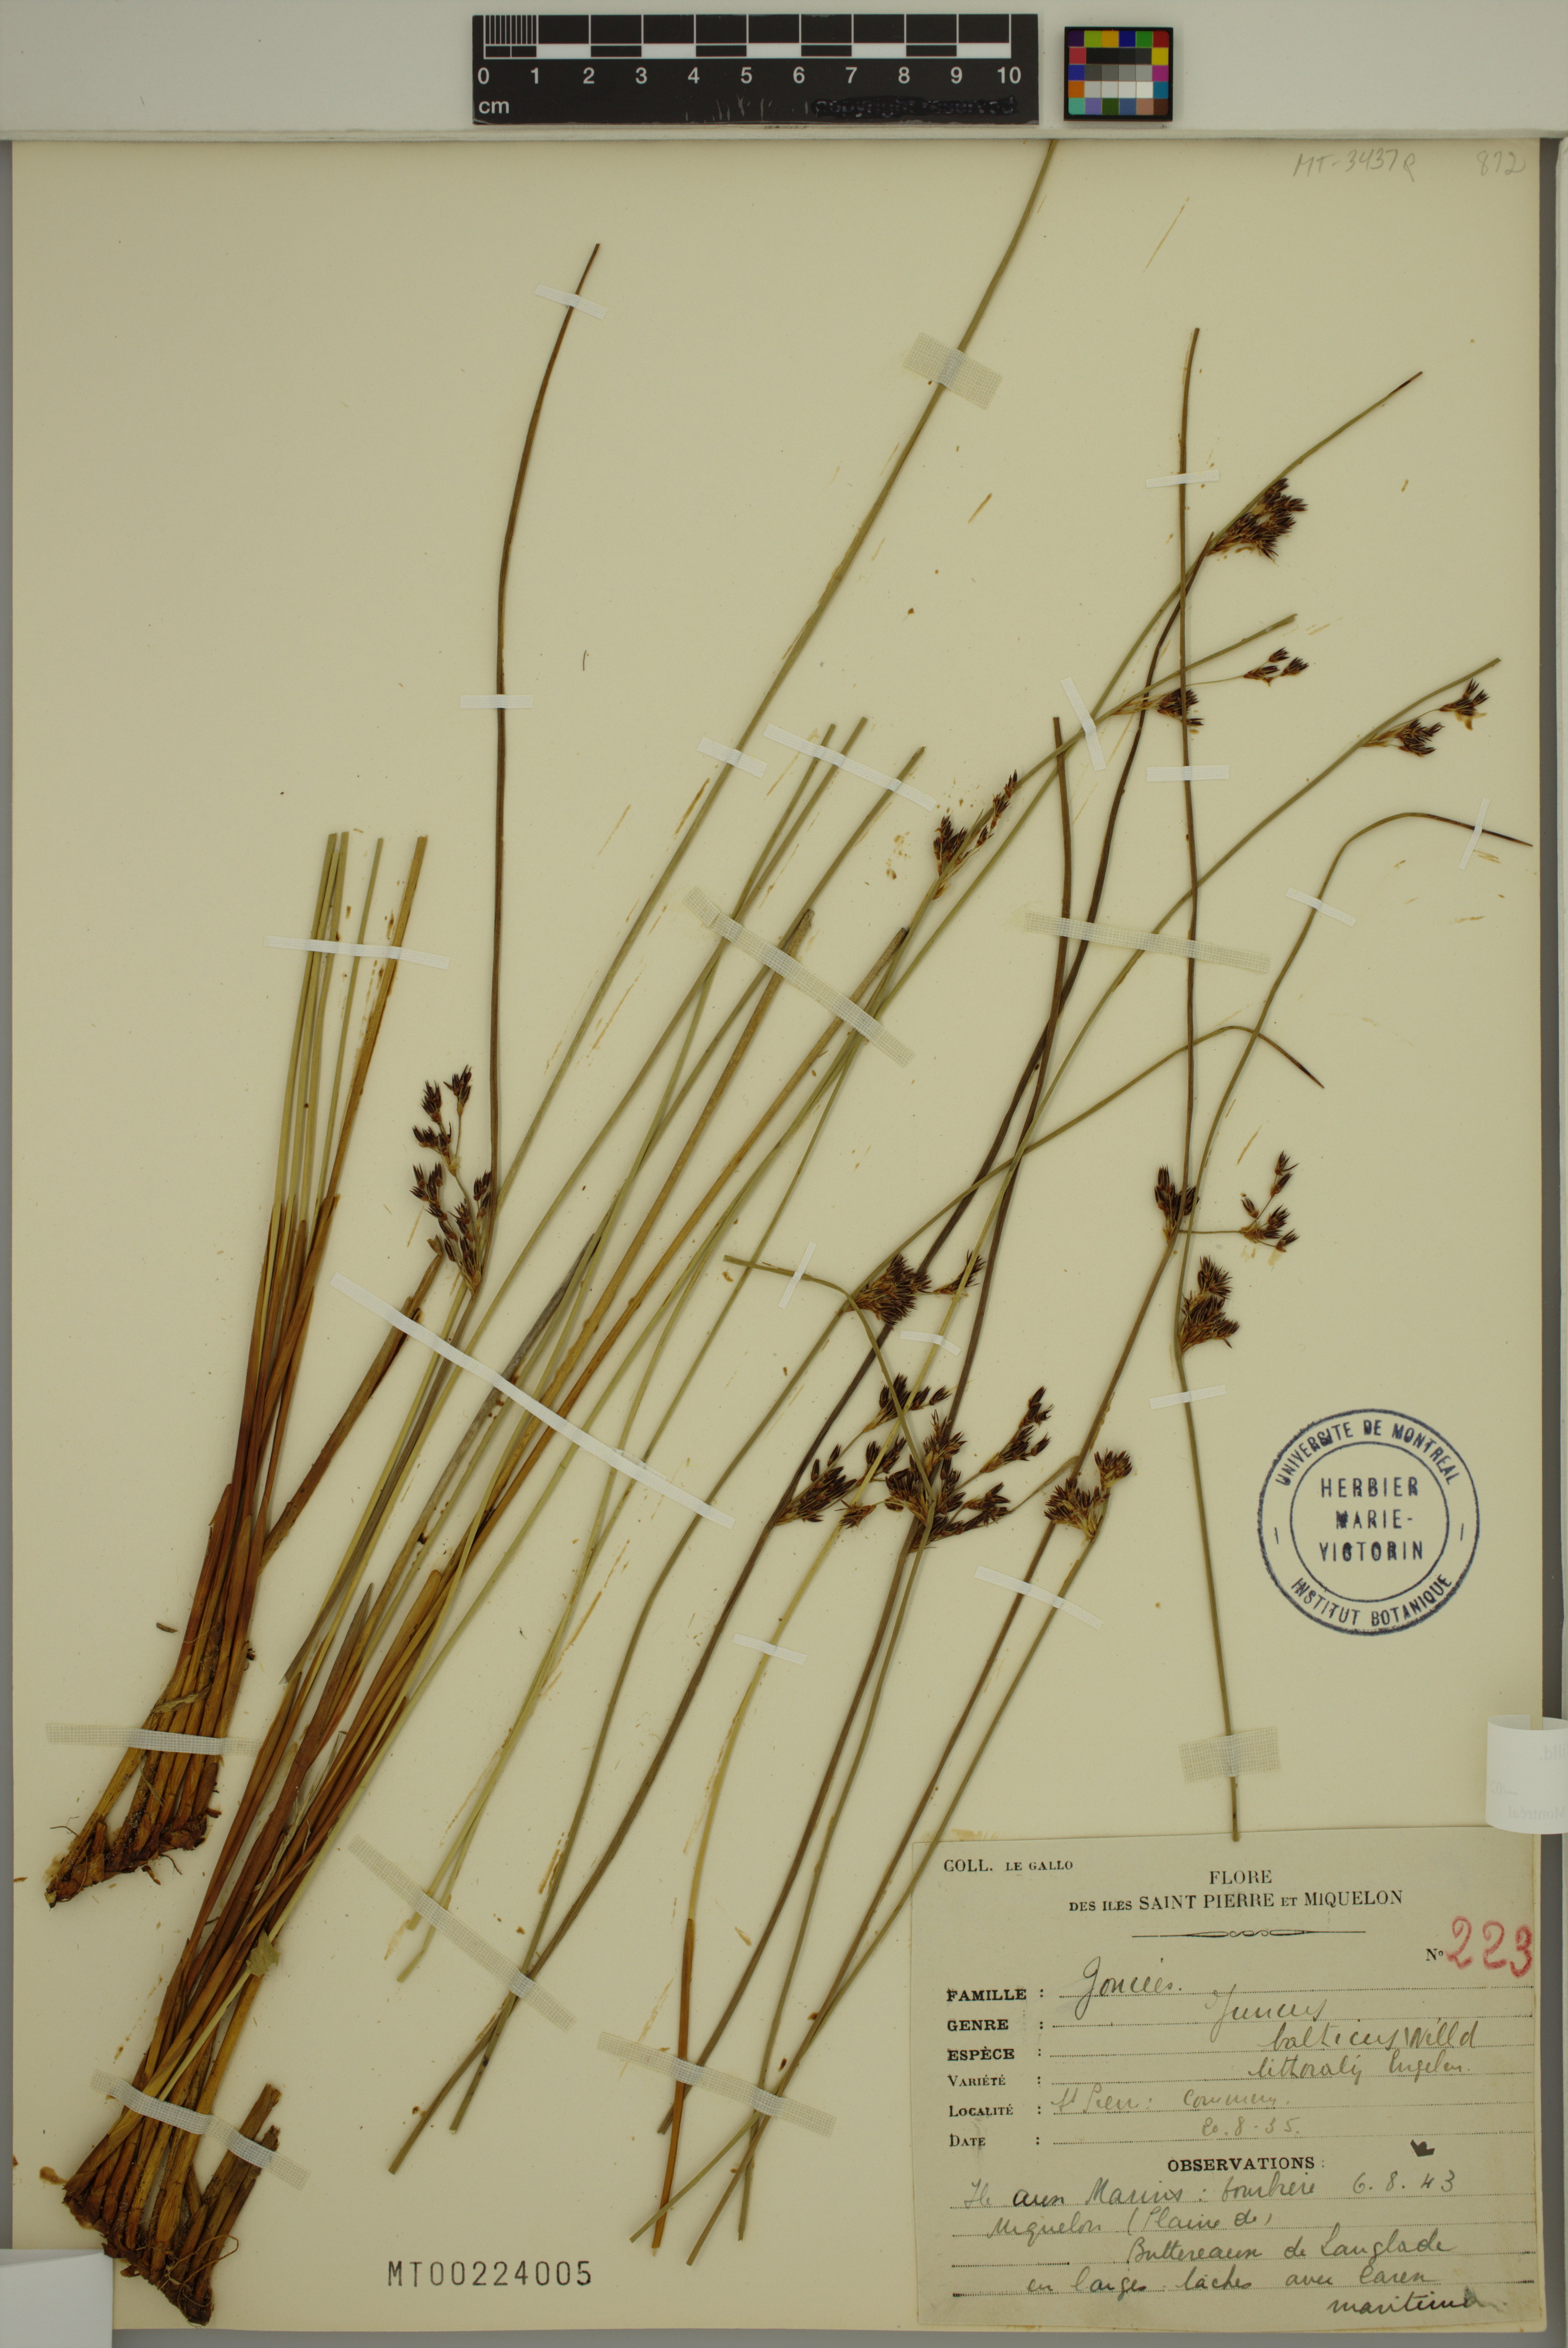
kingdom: Plantae
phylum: Tracheophyta
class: Liliopsida
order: Poales
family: Juncaceae
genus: Juncus
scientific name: Juncus balticus
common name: Baltic rush
